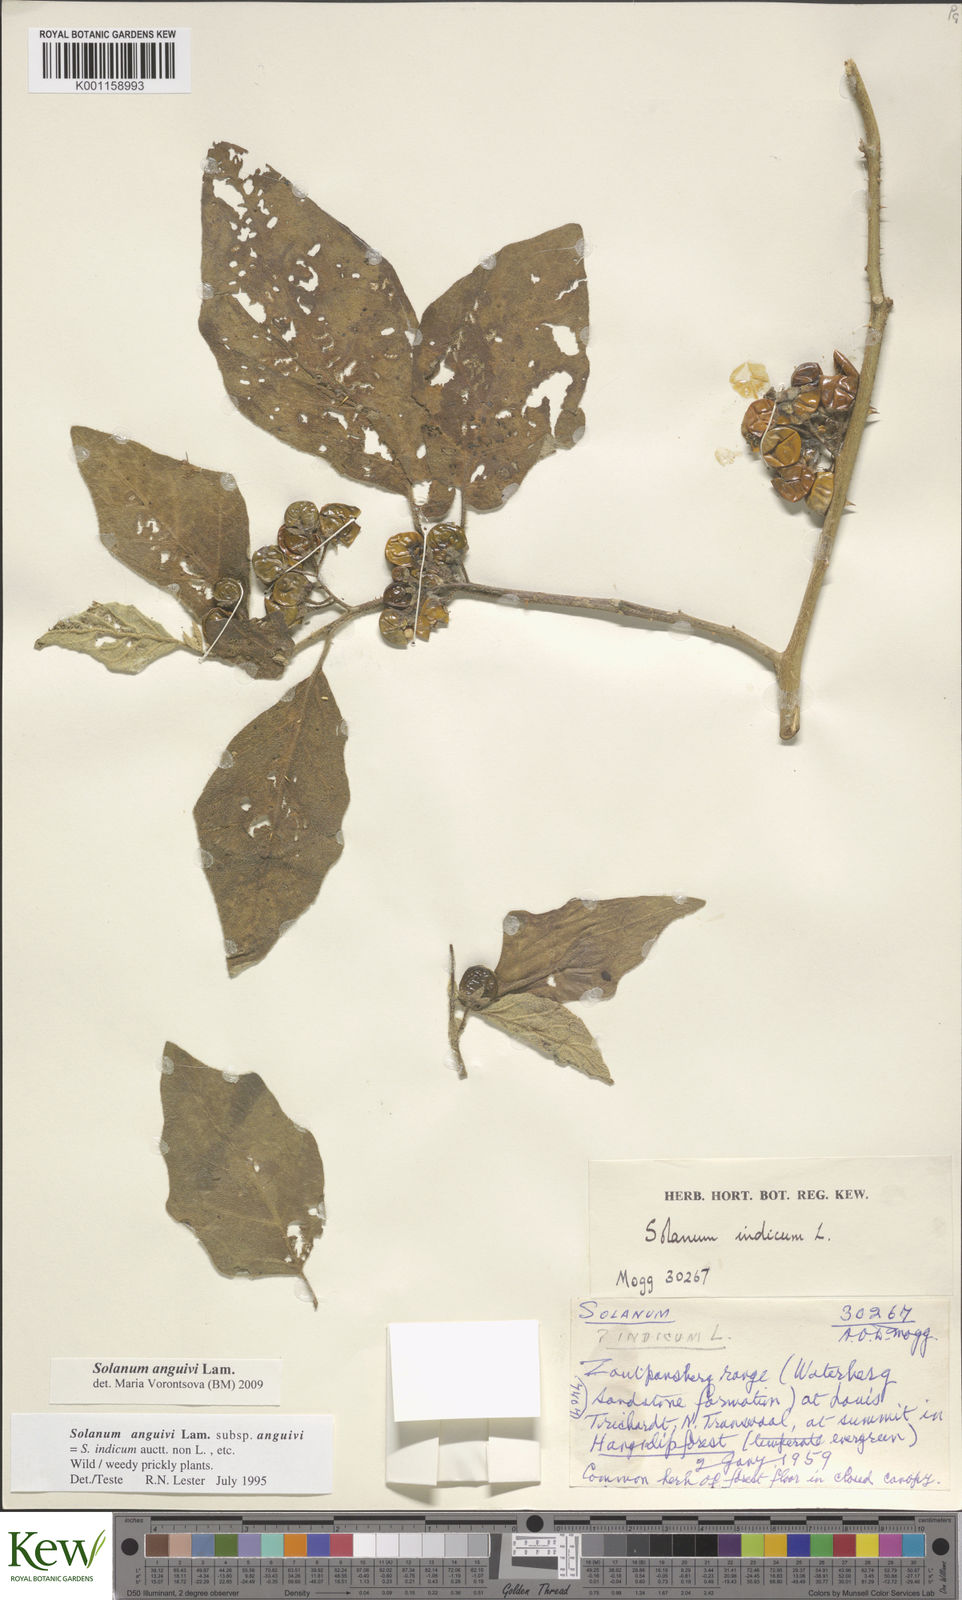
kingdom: Plantae
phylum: Tracheophyta
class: Magnoliopsida
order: Solanales
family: Solanaceae
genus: Solanum
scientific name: Solanum anguivi
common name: Forest bitterberry
